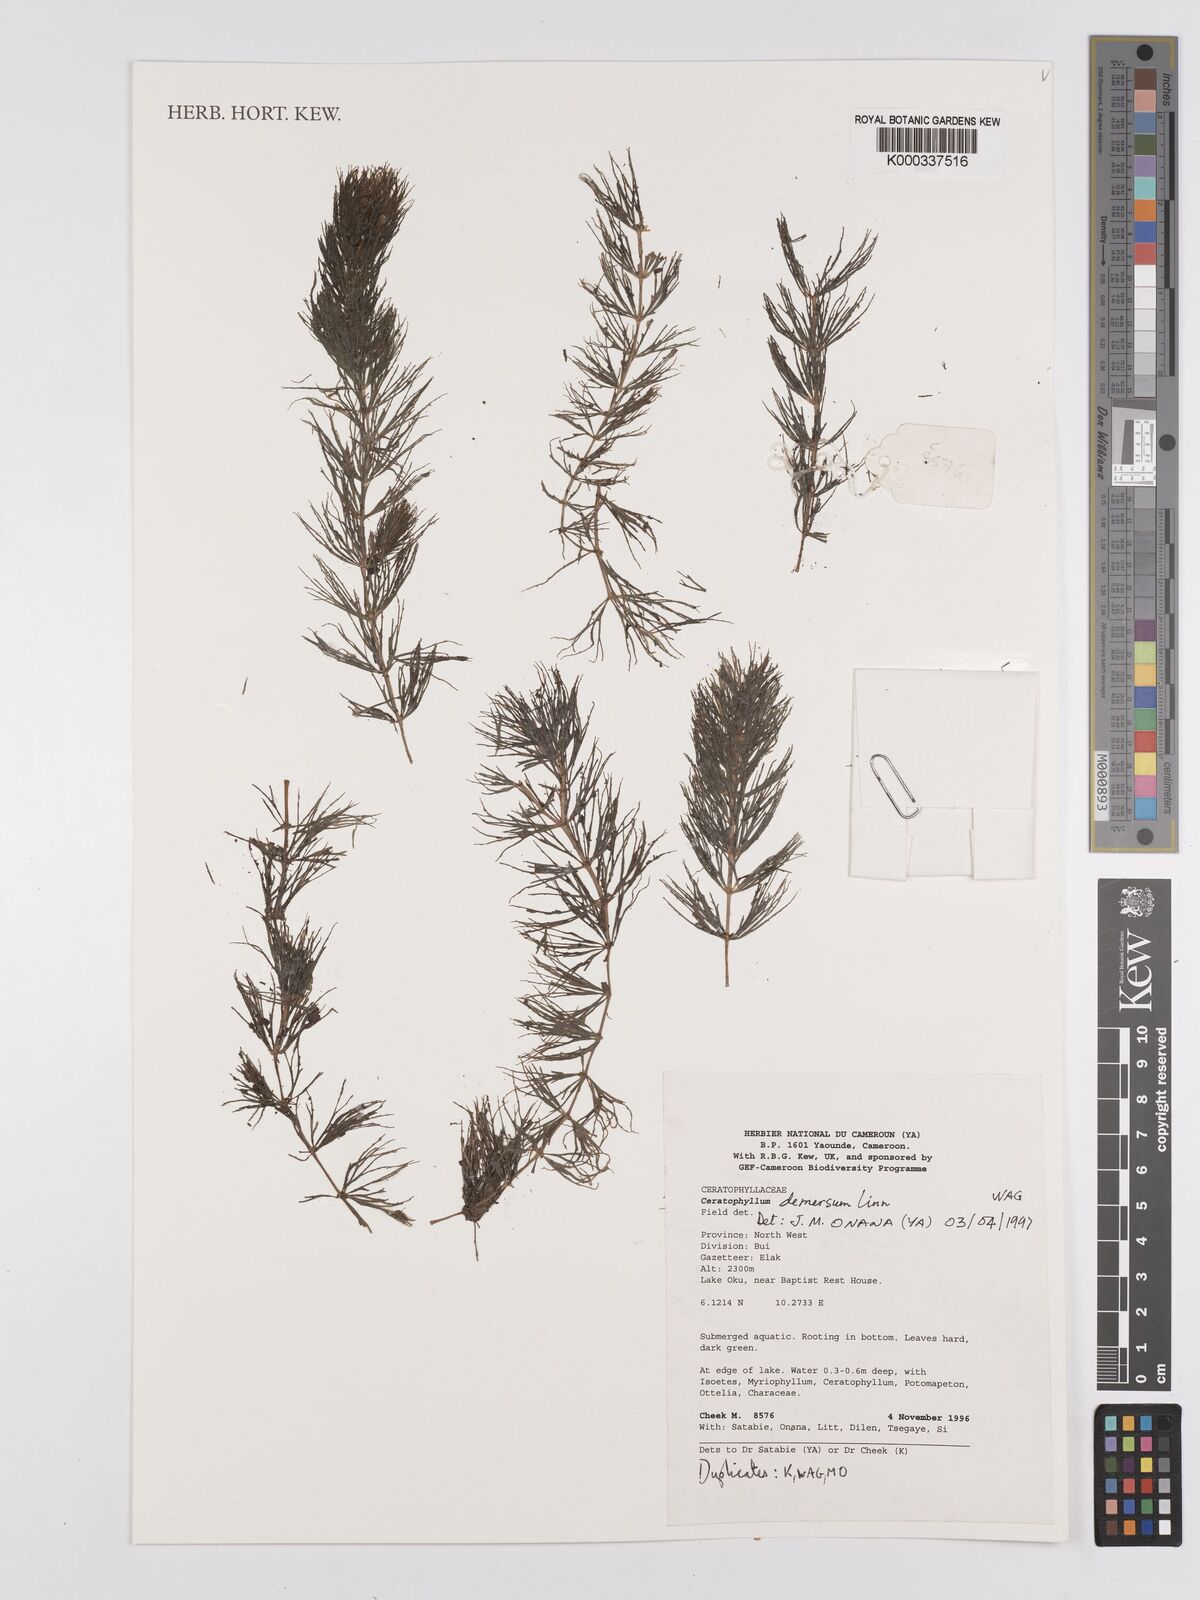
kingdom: Plantae
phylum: Tracheophyta
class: Magnoliopsida
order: Ceratophyllales
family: Ceratophyllaceae
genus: Ceratophyllum
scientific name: Ceratophyllum demersum
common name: Rigid hornwort
